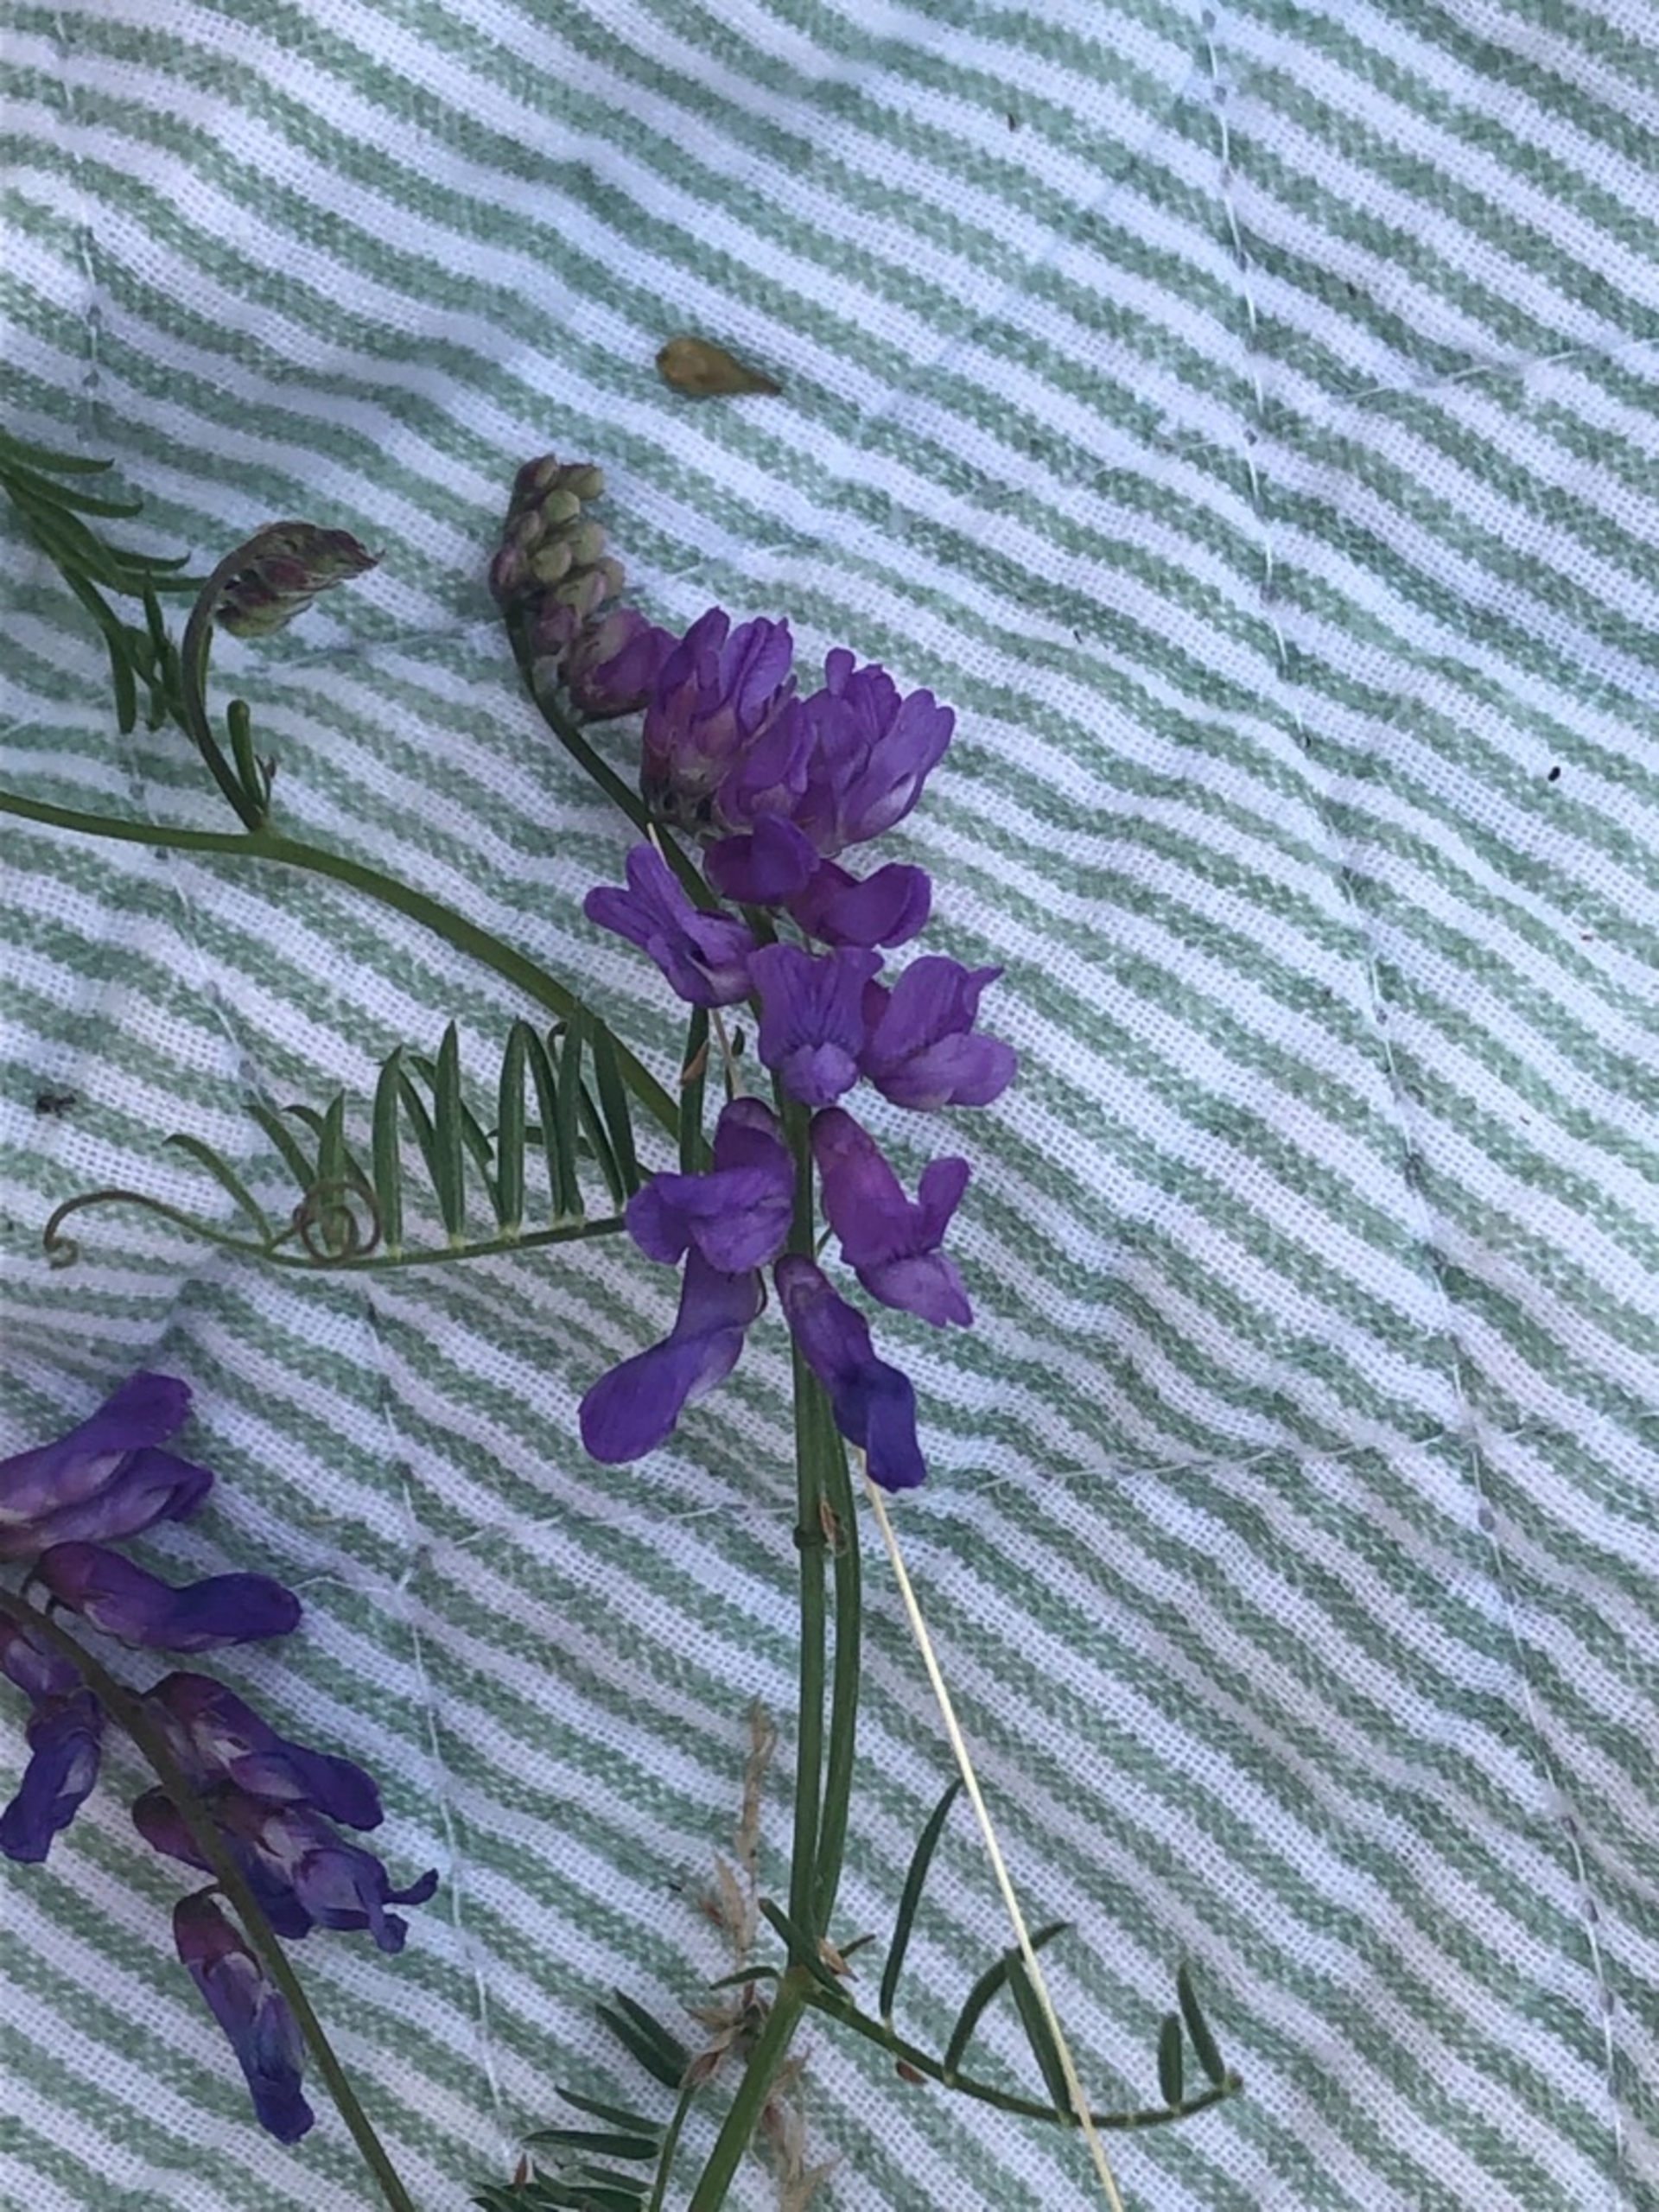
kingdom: Plantae
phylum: Tracheophyta
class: Magnoliopsida
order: Fabales
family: Fabaceae
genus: Vicia
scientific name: Vicia cracca
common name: Muse-vikke
